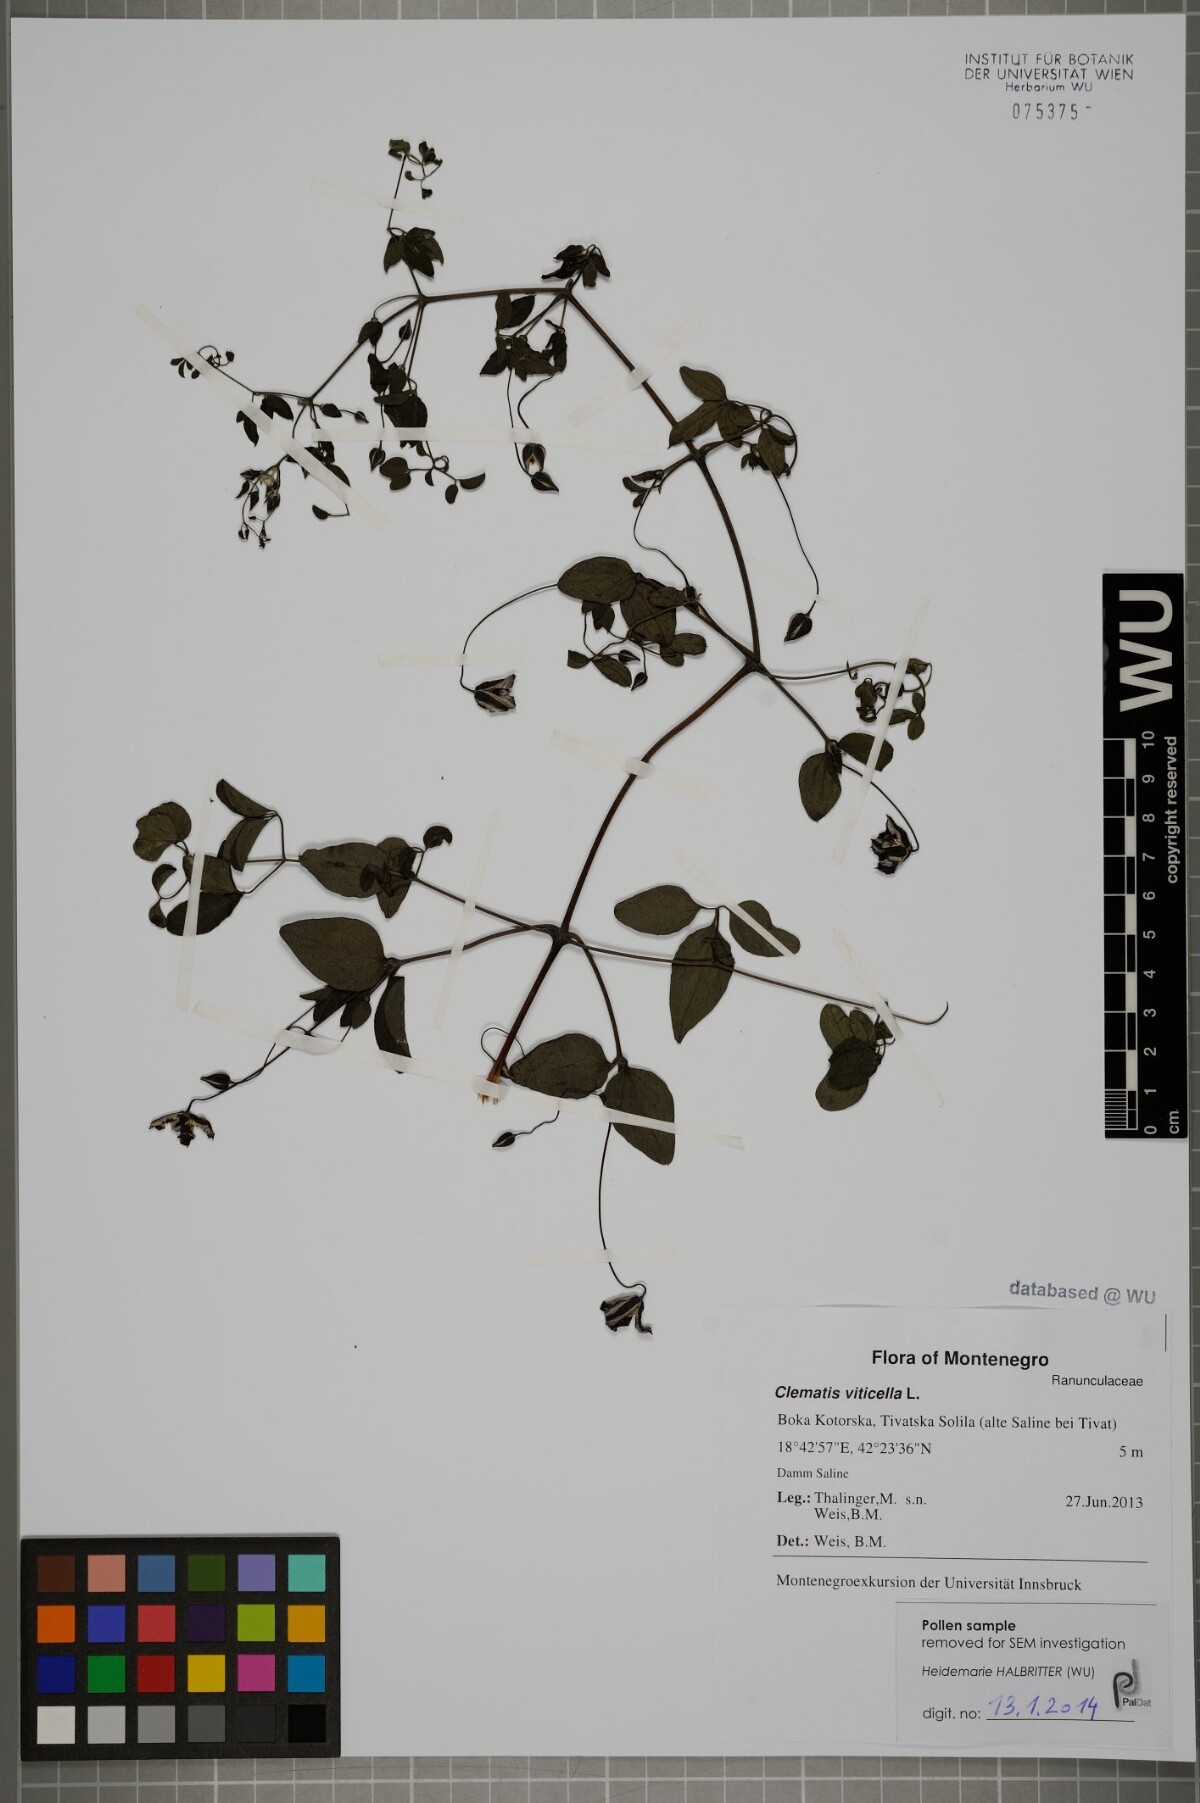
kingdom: Plantae
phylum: Tracheophyta
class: Magnoliopsida
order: Ranunculales
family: Ranunculaceae
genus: Clematis
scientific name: Clematis viticella
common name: Purple clematis
